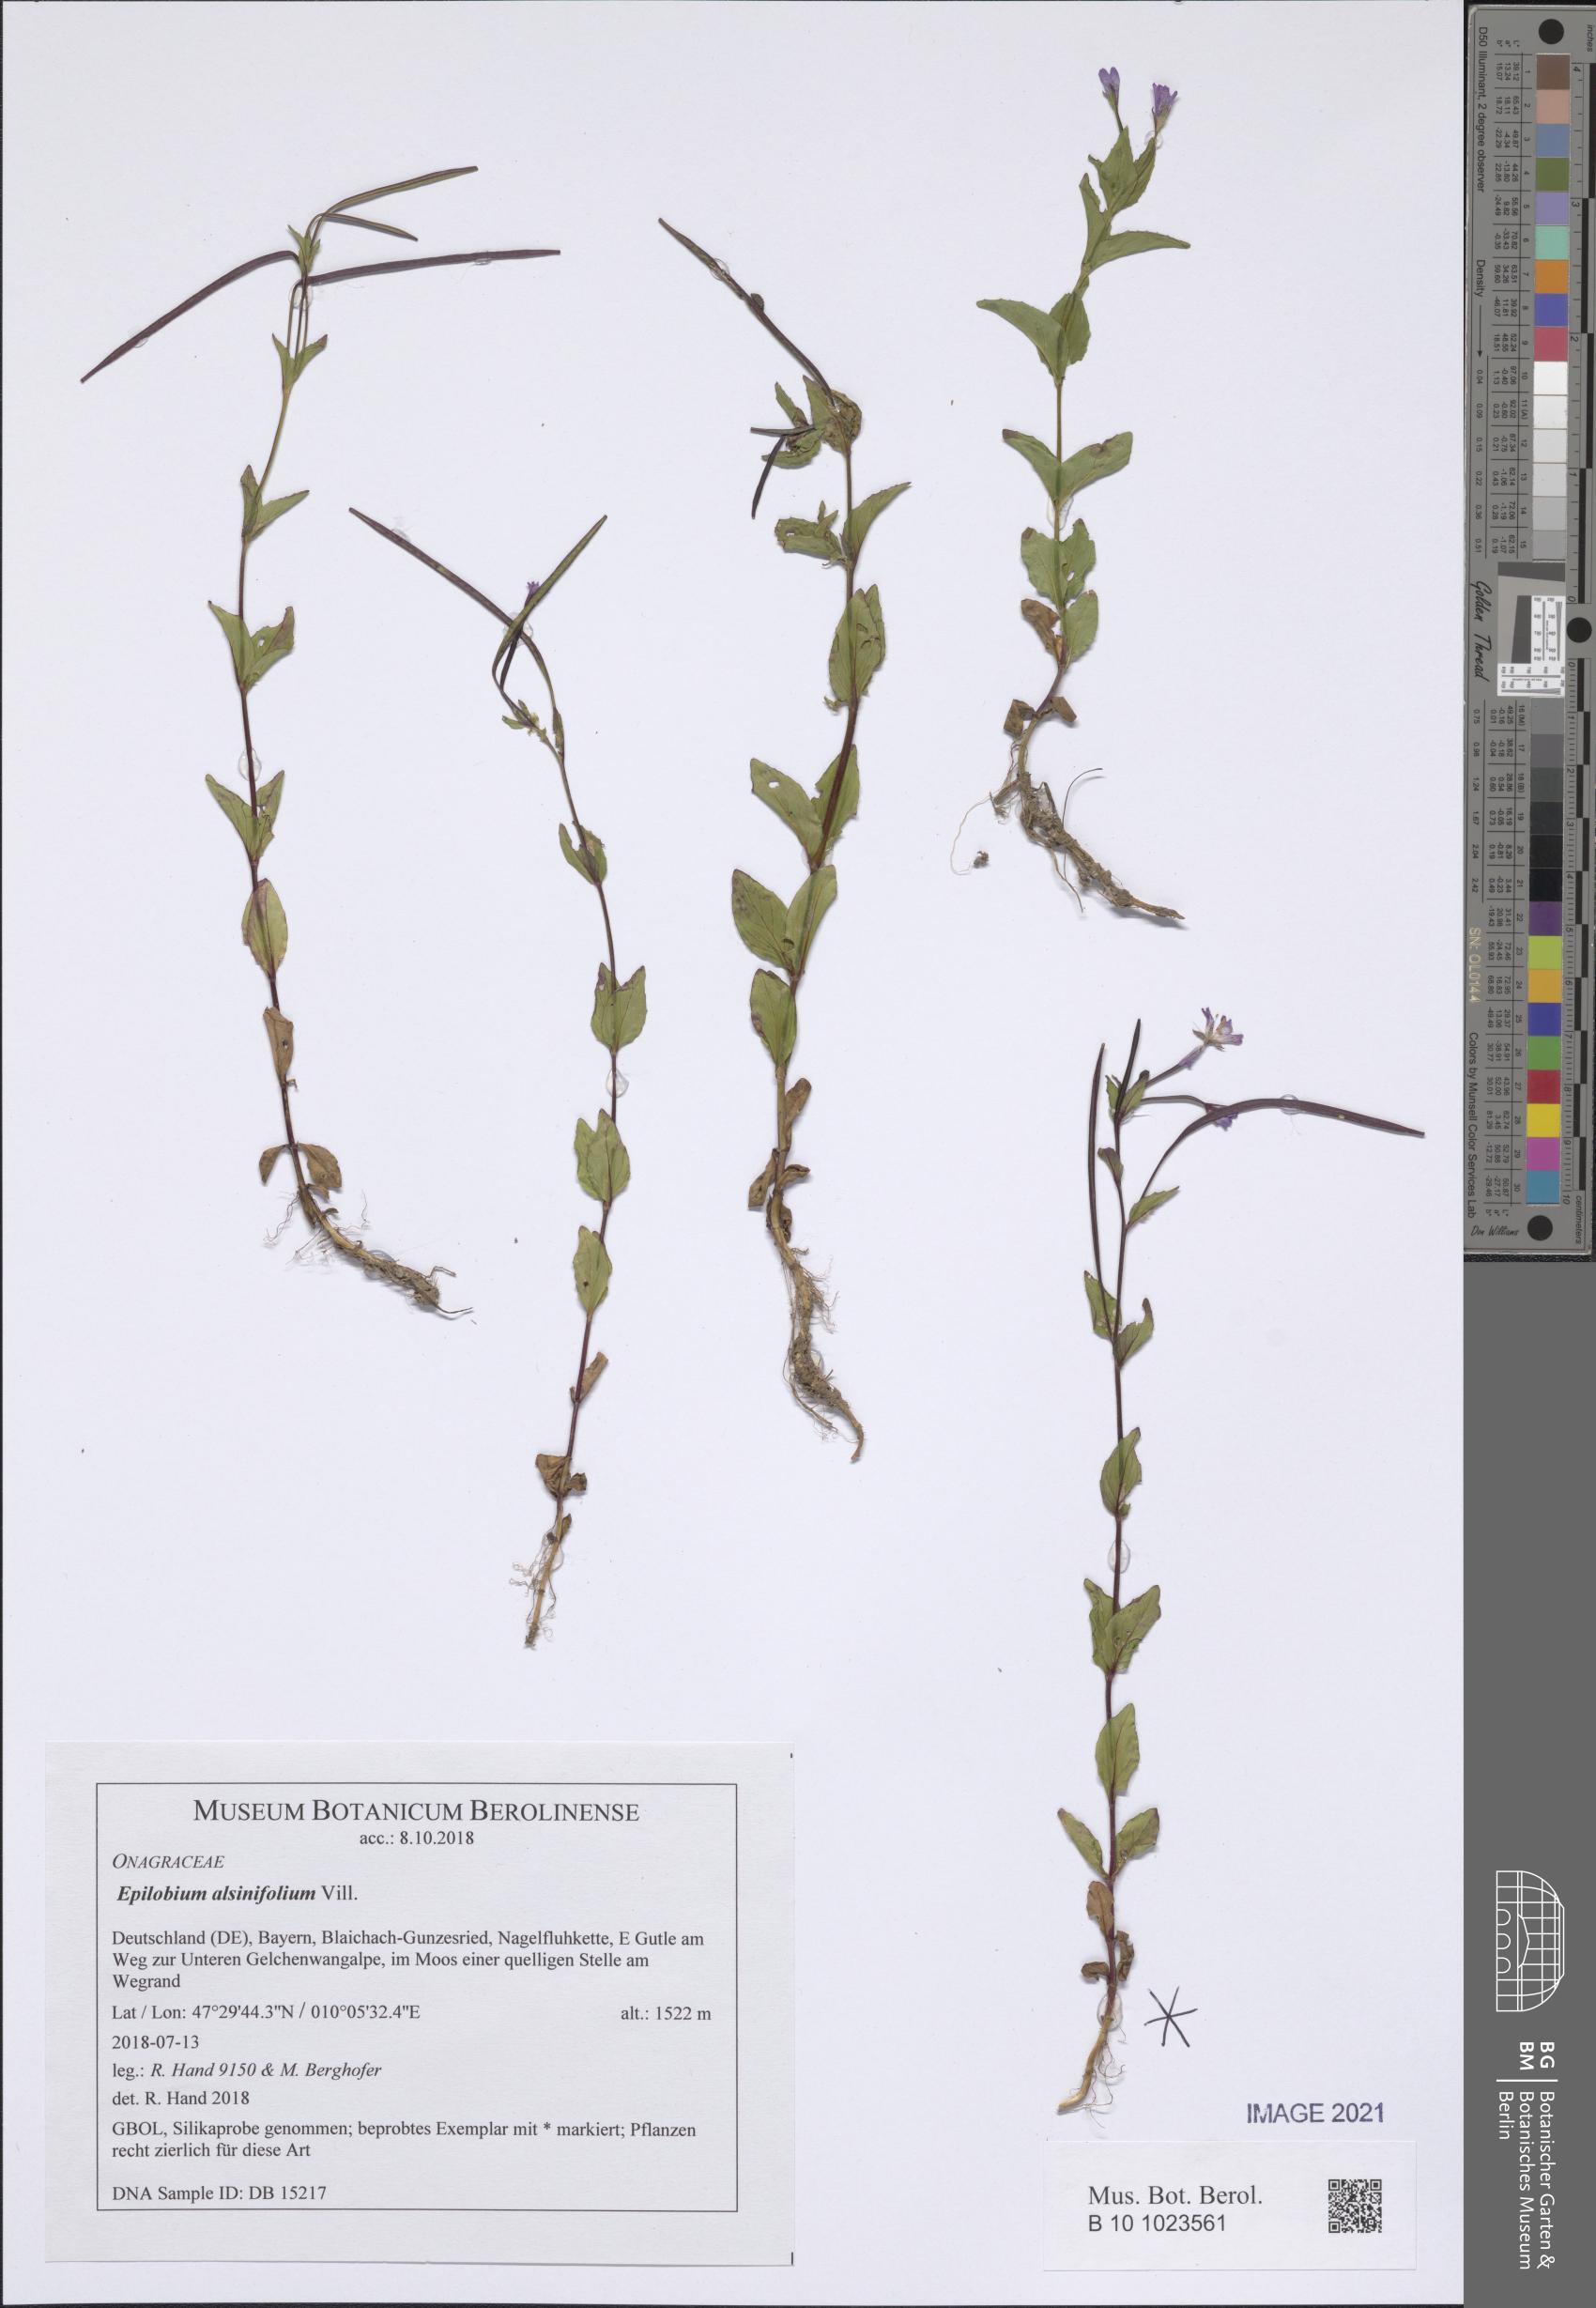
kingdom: Plantae
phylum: Tracheophyta
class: Magnoliopsida
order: Myrtales
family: Onagraceae
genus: Epilobium
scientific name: Epilobium alsinifolium
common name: Chickweed willowherb
